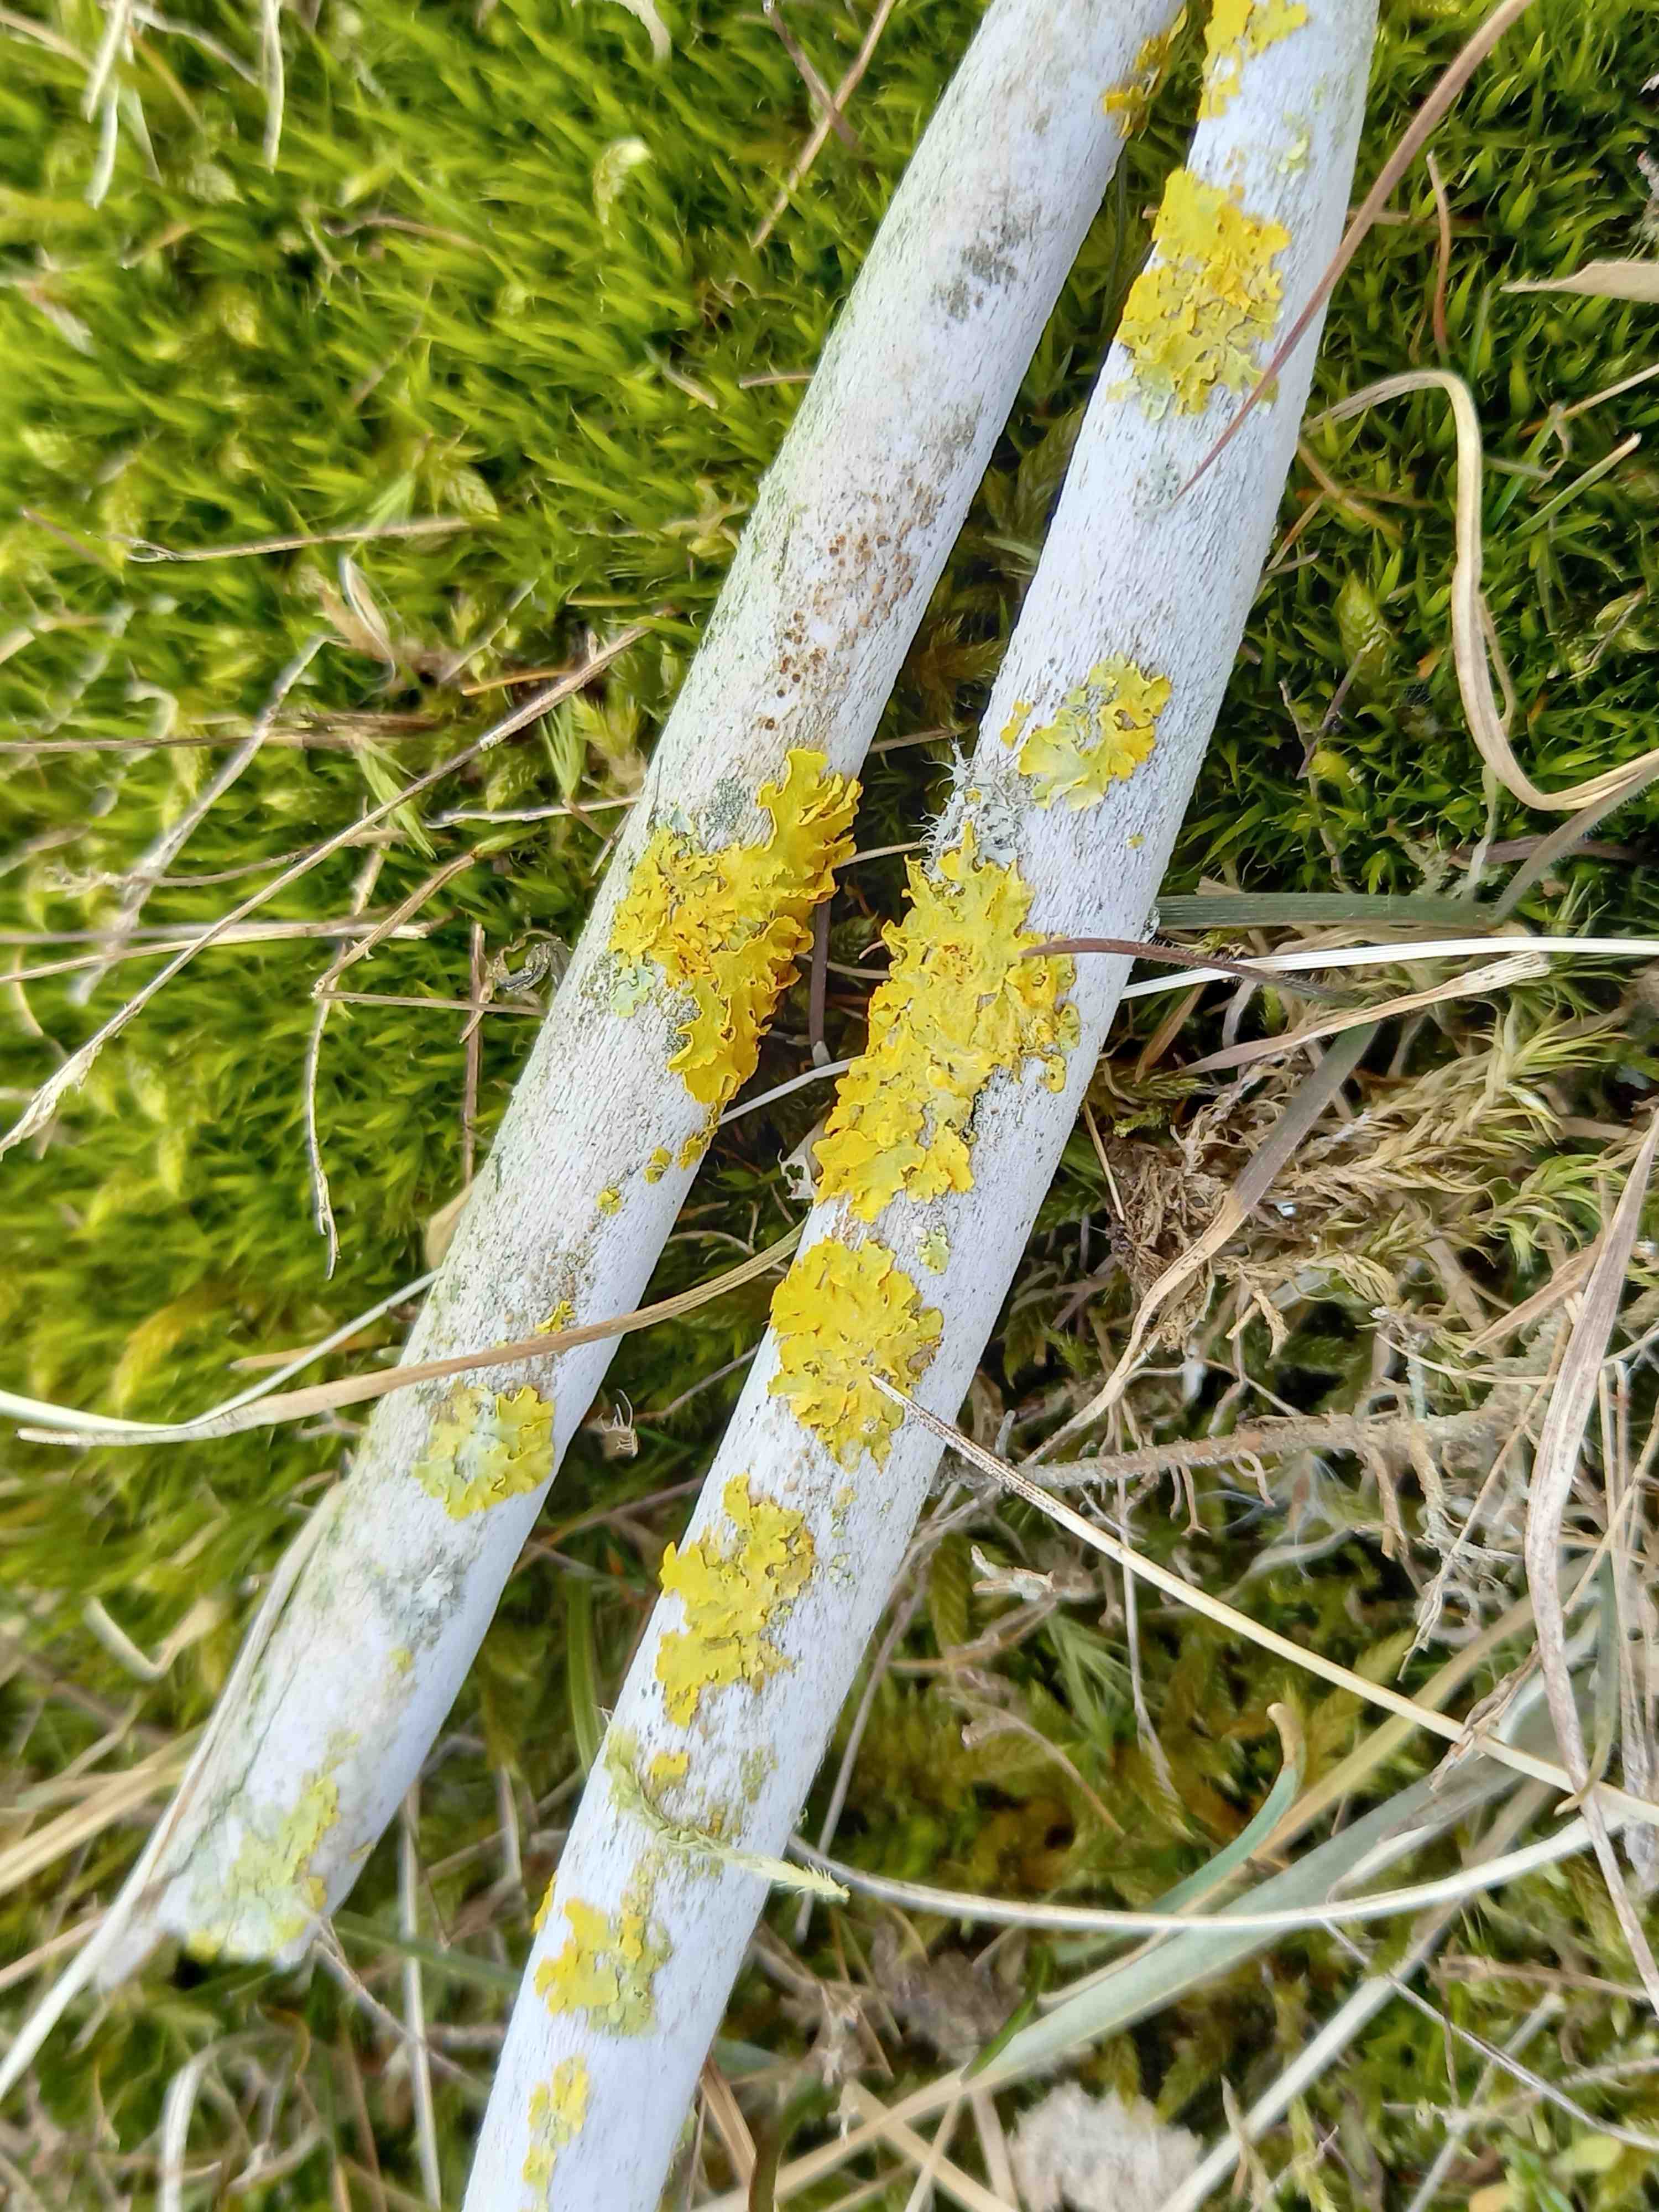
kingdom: Fungi
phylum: Ascomycota
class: Lecanoromycetes
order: Teloschistales
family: Teloschistaceae
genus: Xanthoria
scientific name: Xanthoria parietina
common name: almindelig væggelav
